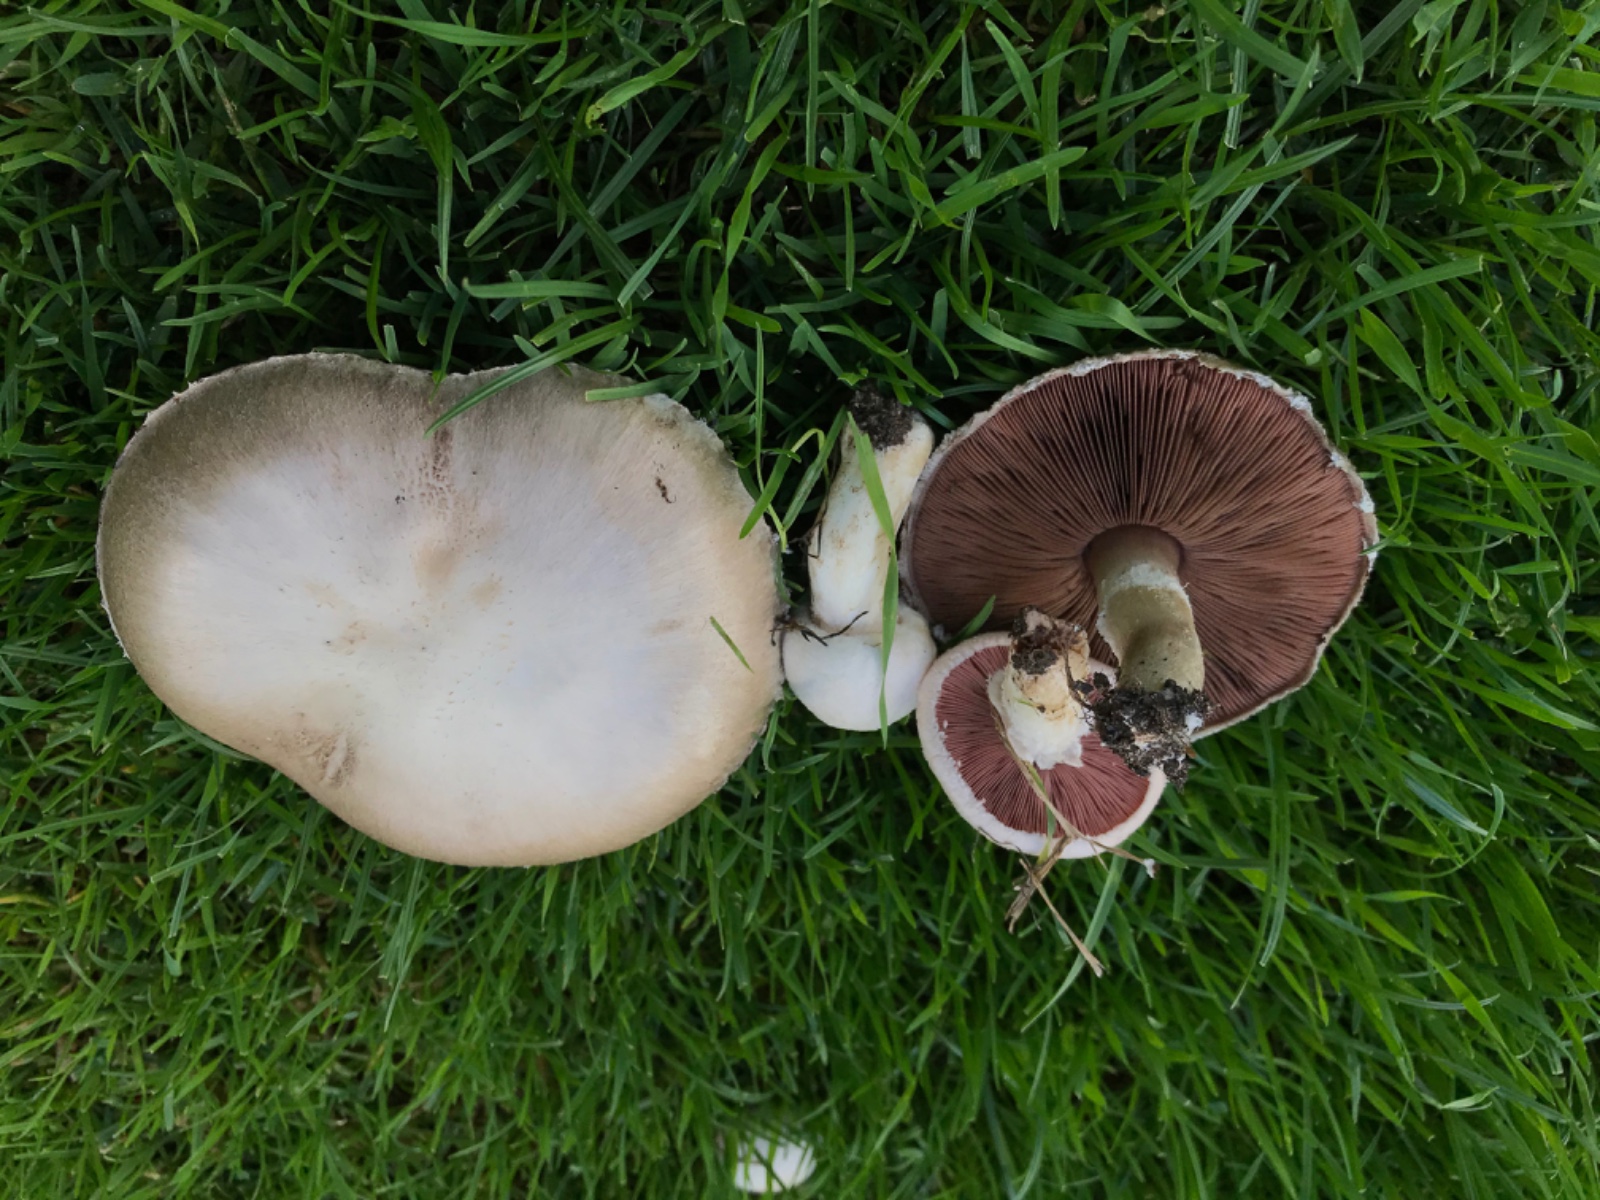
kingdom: Fungi
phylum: Basidiomycota
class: Agaricomycetes
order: Agaricales
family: Agaricaceae
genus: Agaricus
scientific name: Agaricus campestris
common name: mark-champignon
